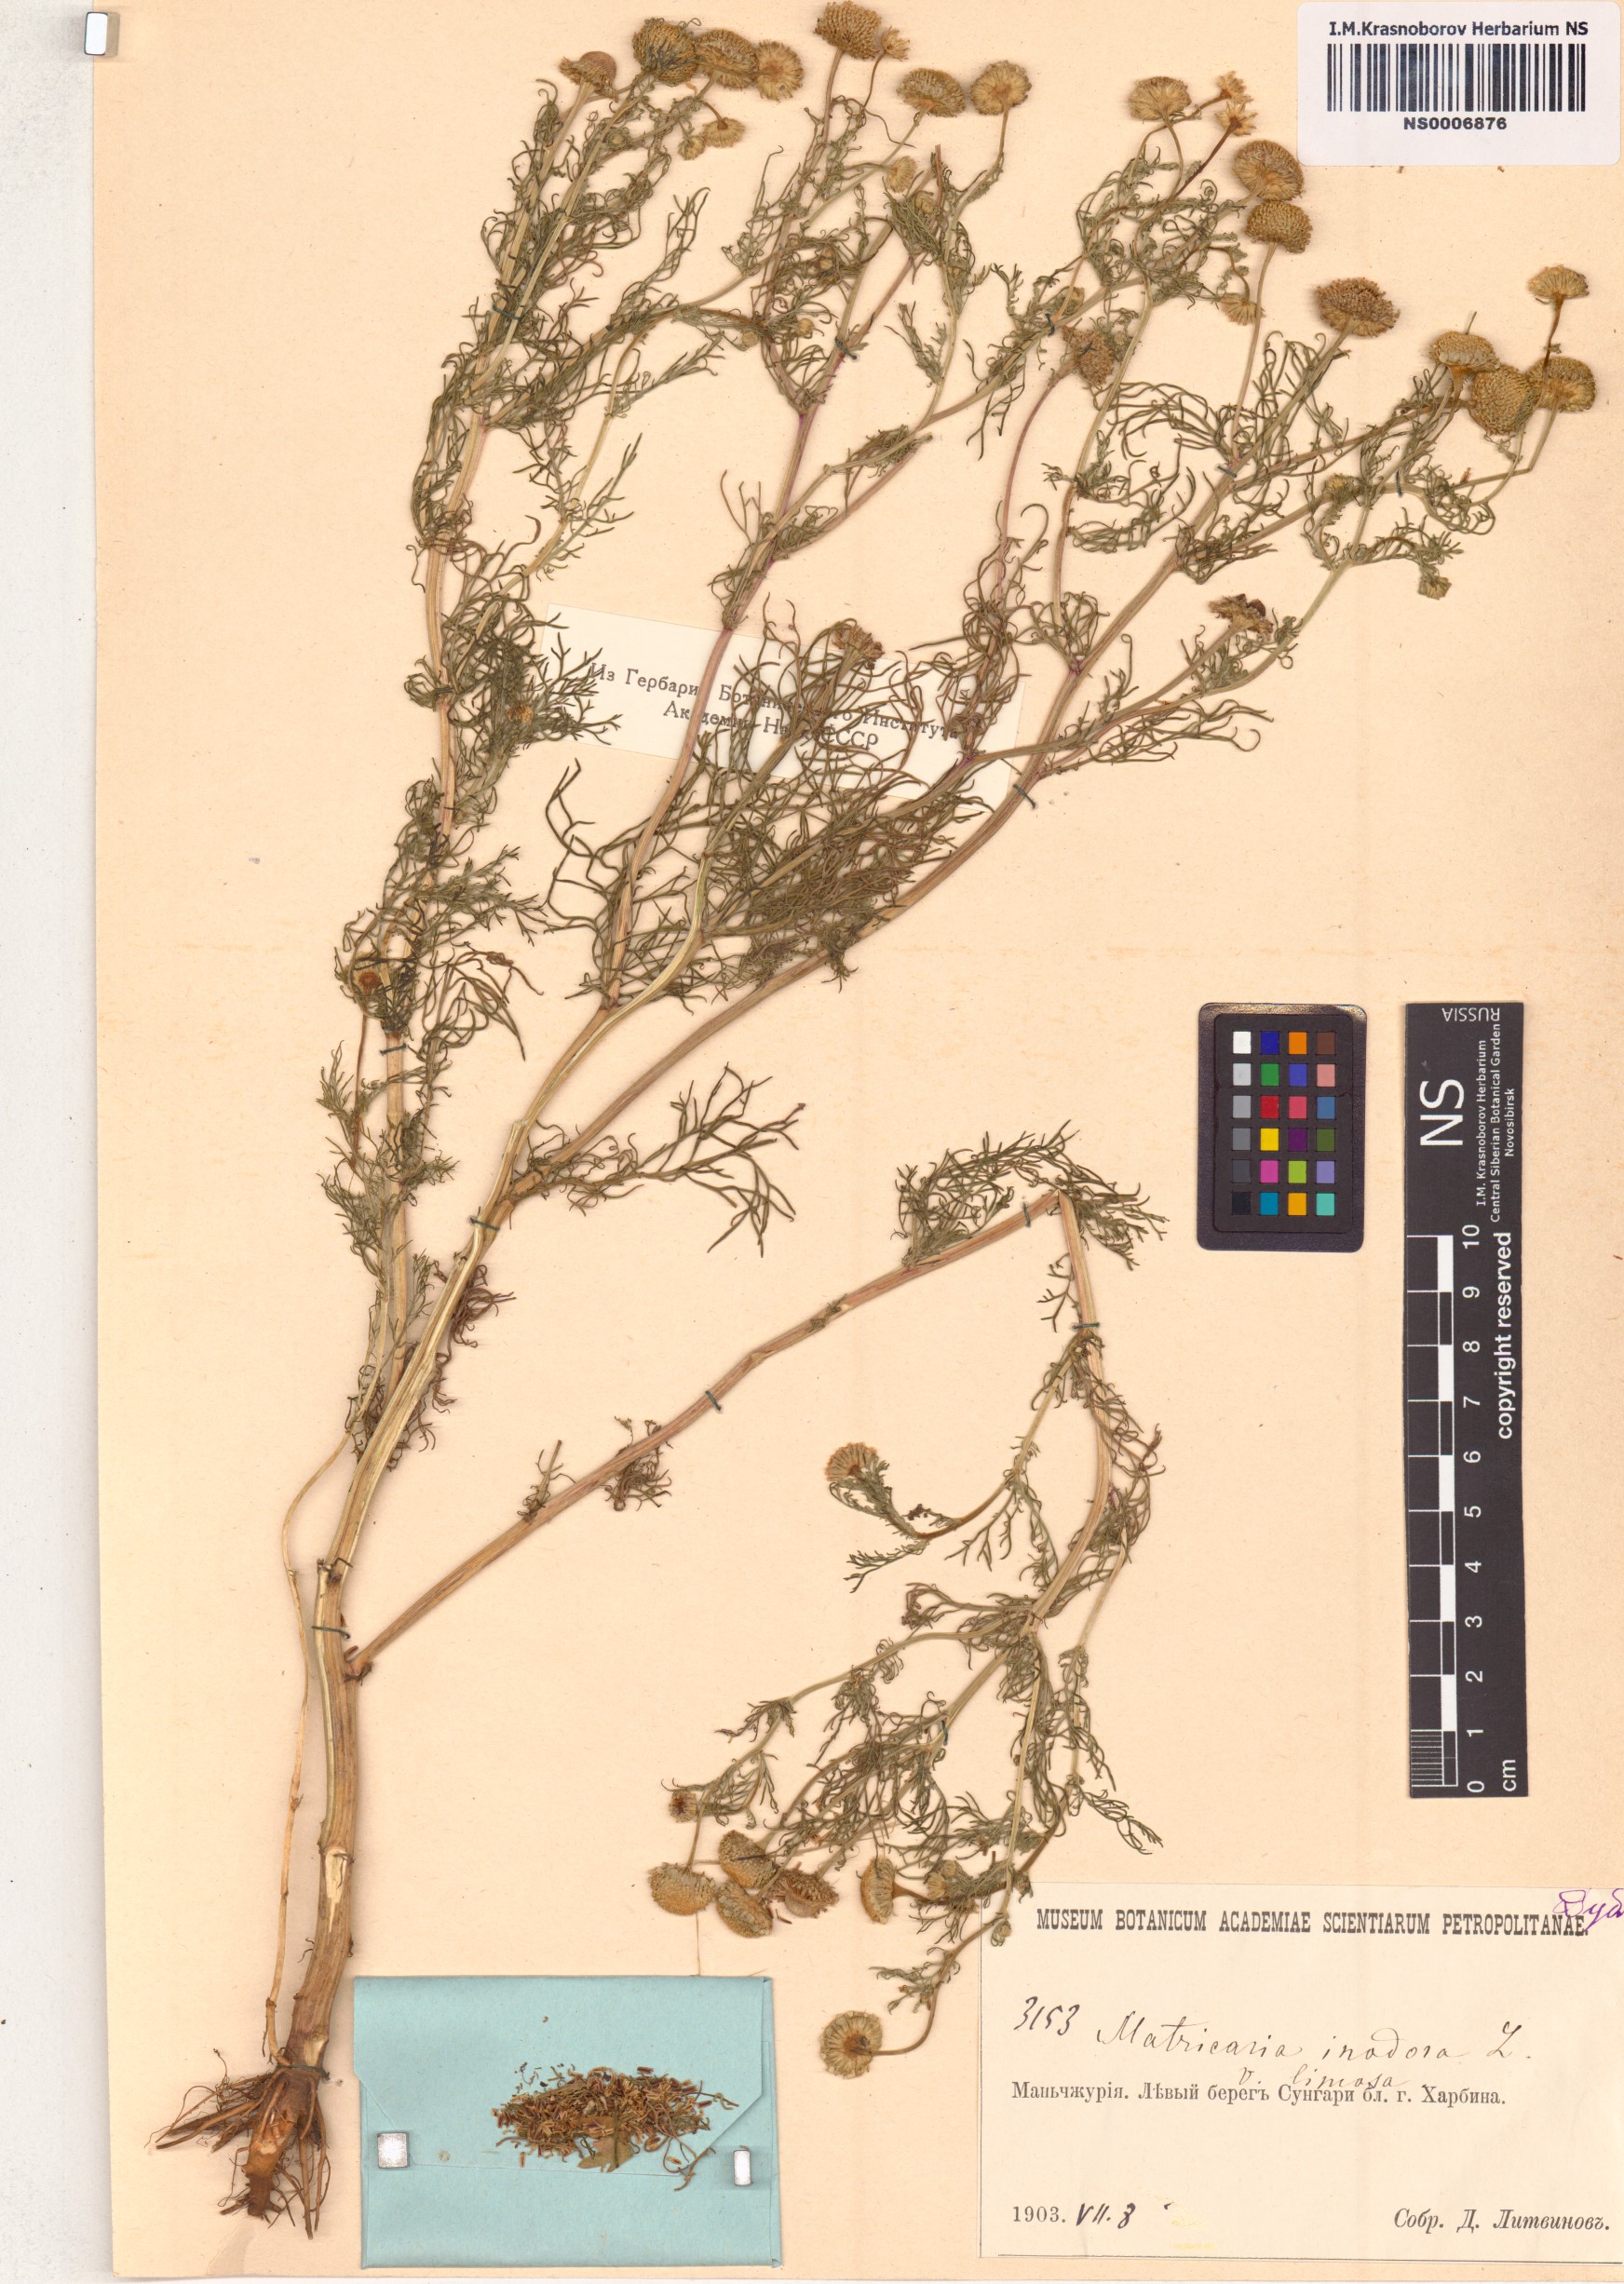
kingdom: Plantae
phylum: Tracheophyta
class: Magnoliopsida
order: Asterales
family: Asteraceae
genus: Tripleurospermum
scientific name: Tripleurospermum inodorum
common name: Scentless mayweed
